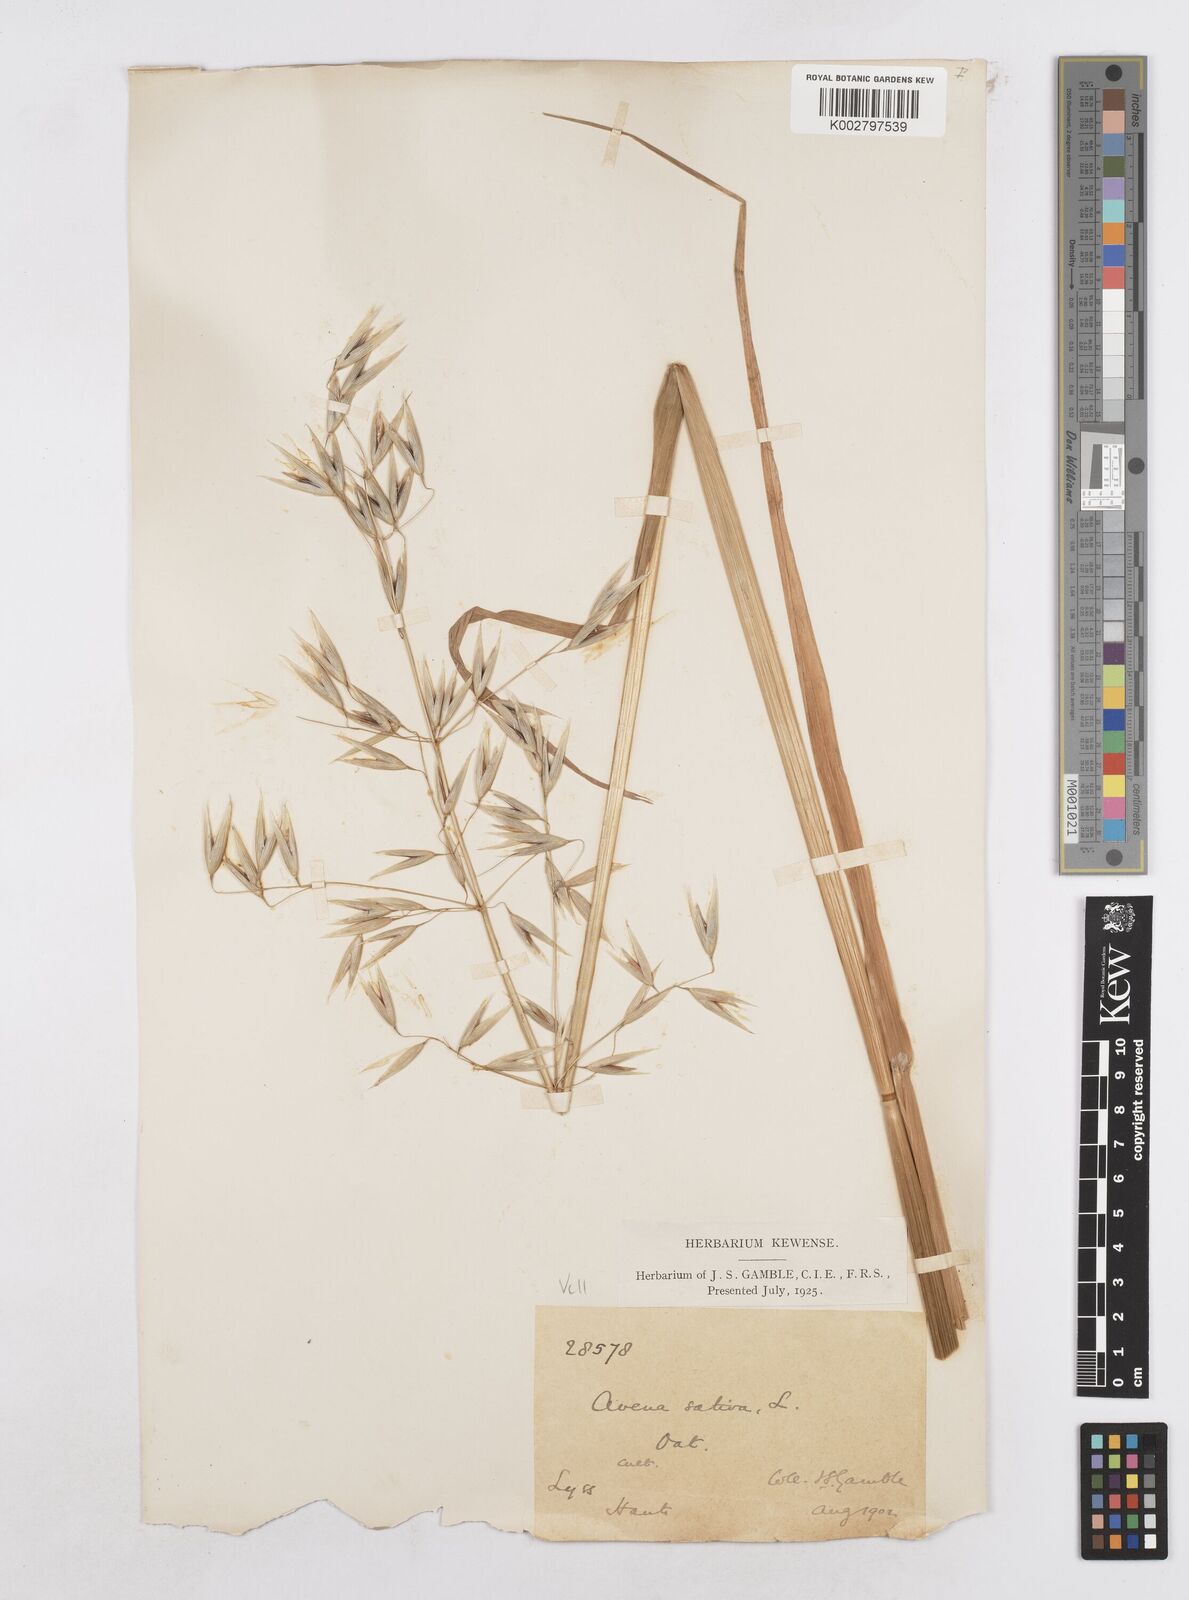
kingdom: Plantae
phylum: Tracheophyta
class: Liliopsida
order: Poales
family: Poaceae
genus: Avena
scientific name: Avena sativa
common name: Oat
